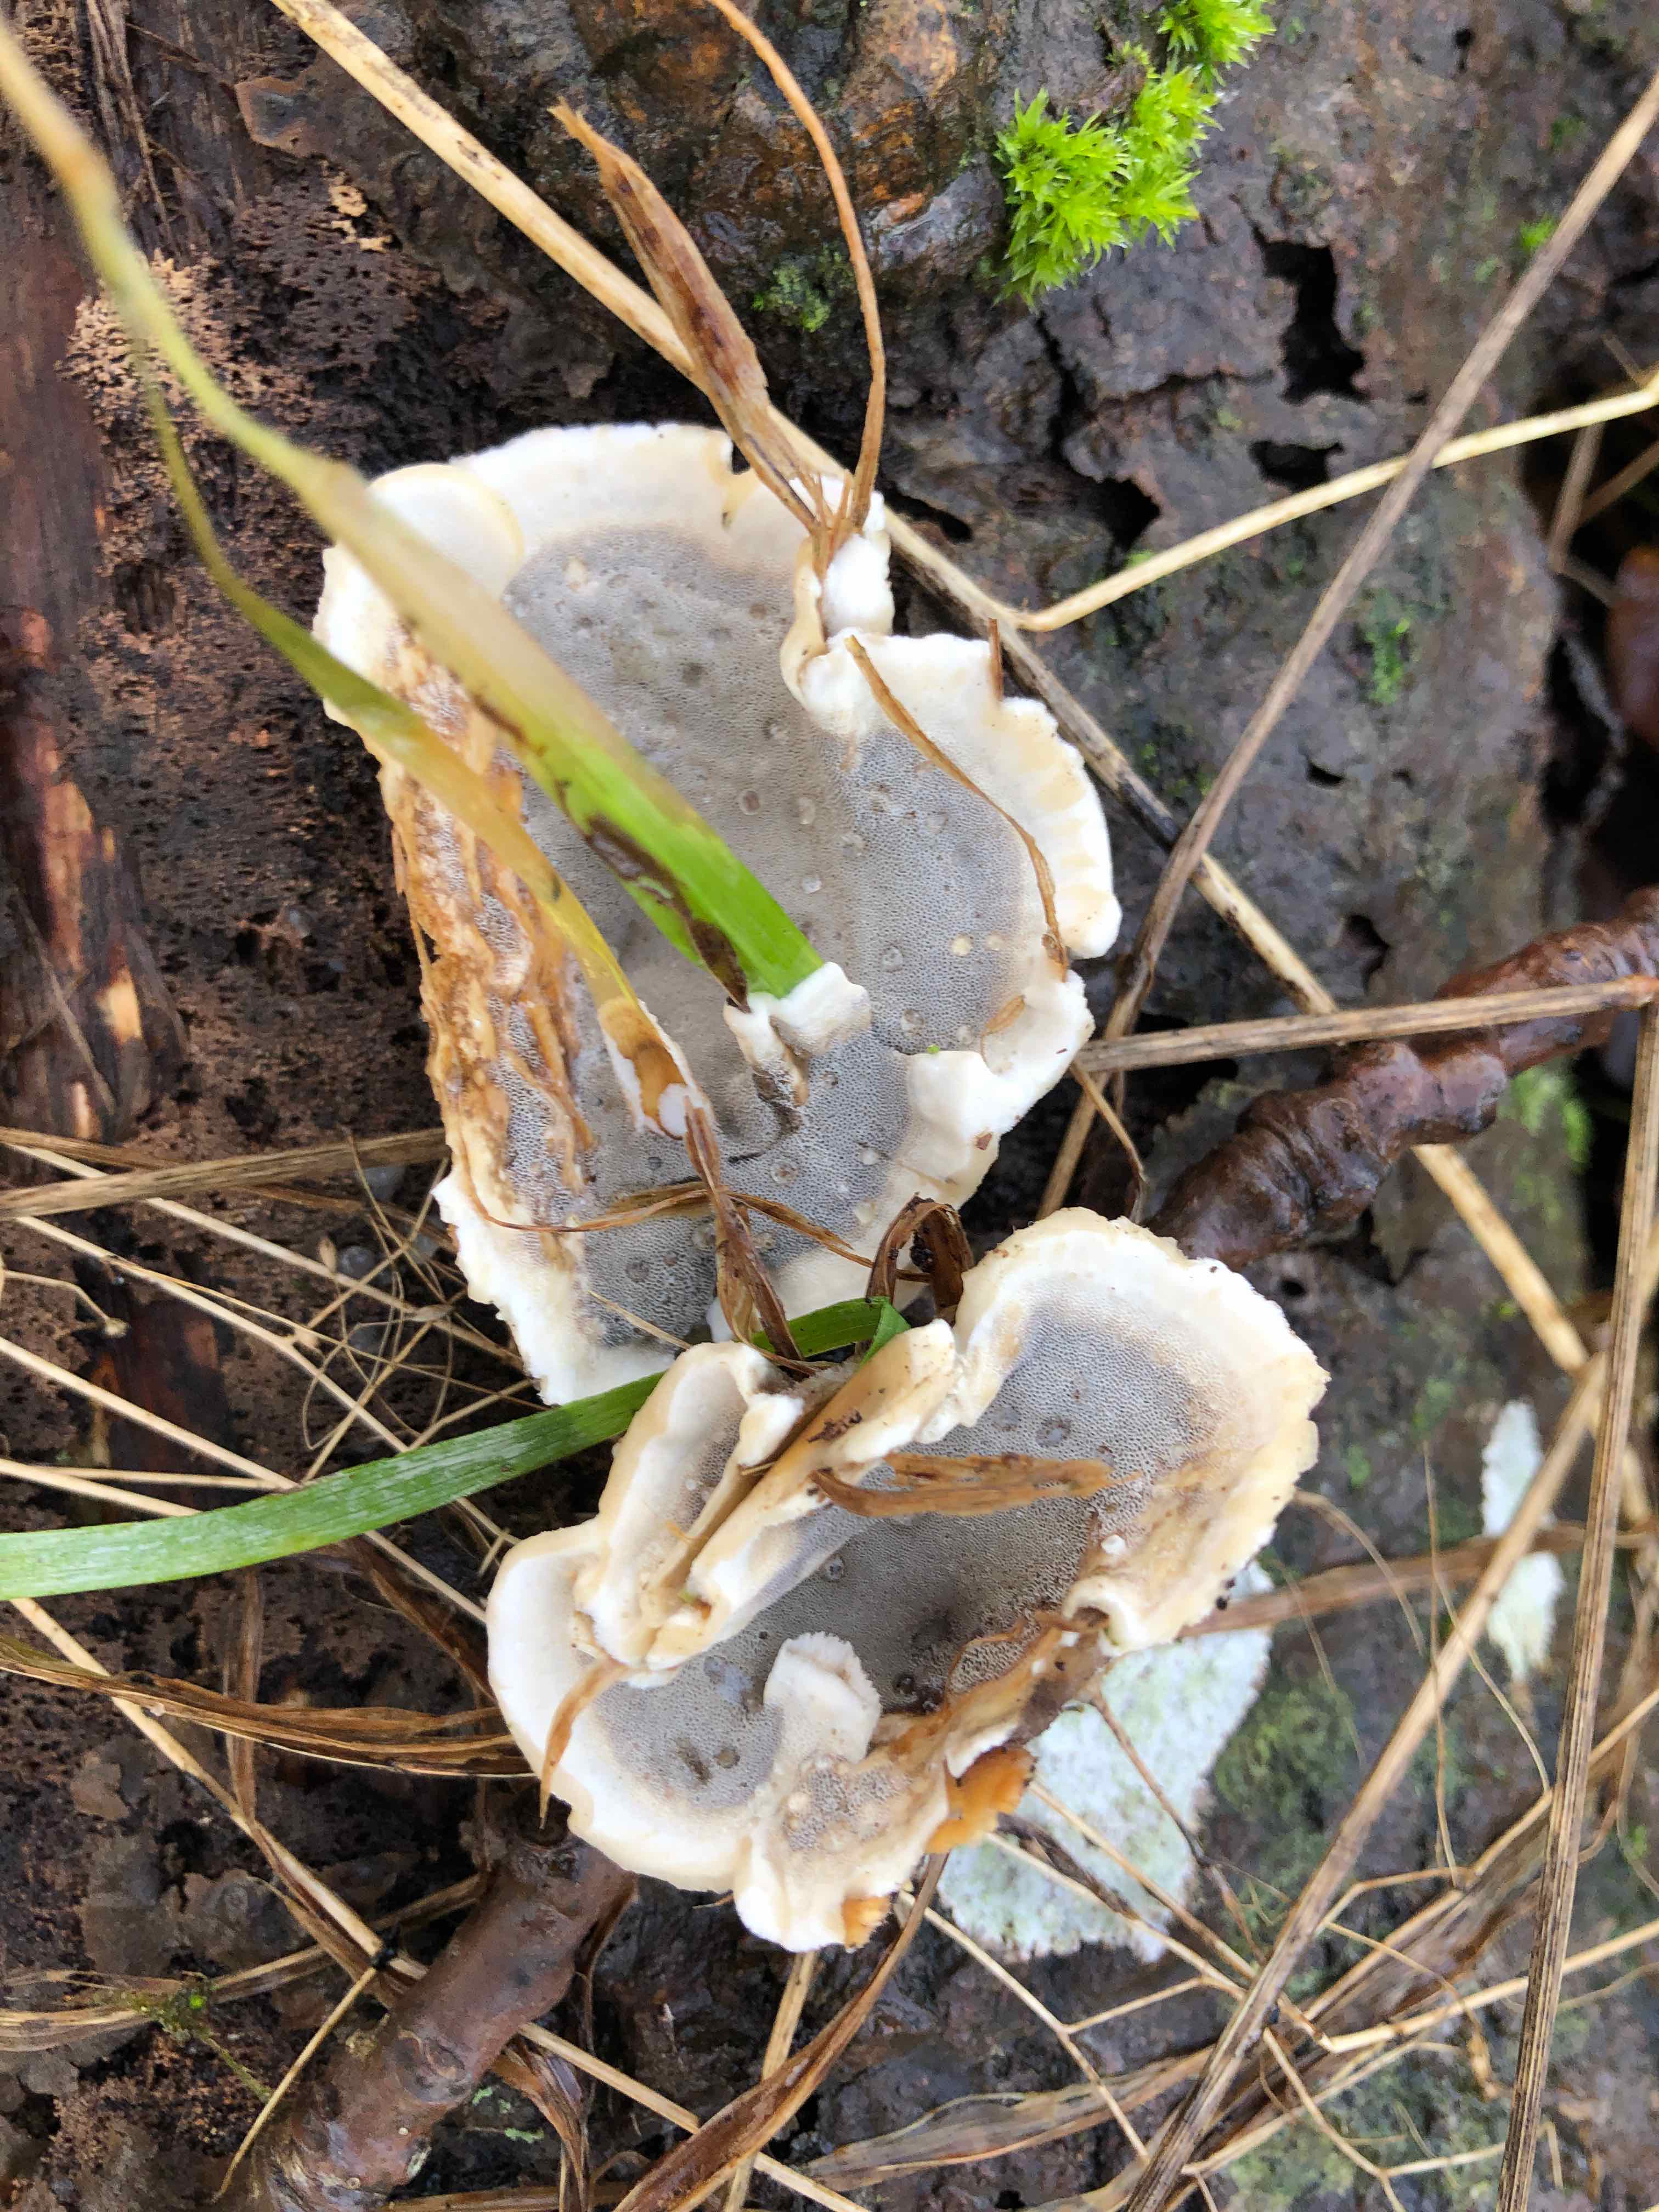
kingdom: Fungi
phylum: Basidiomycota
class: Agaricomycetes
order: Polyporales
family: Phanerochaetaceae
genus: Bjerkandera
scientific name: Bjerkandera adusta
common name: sveden sodporesvamp
